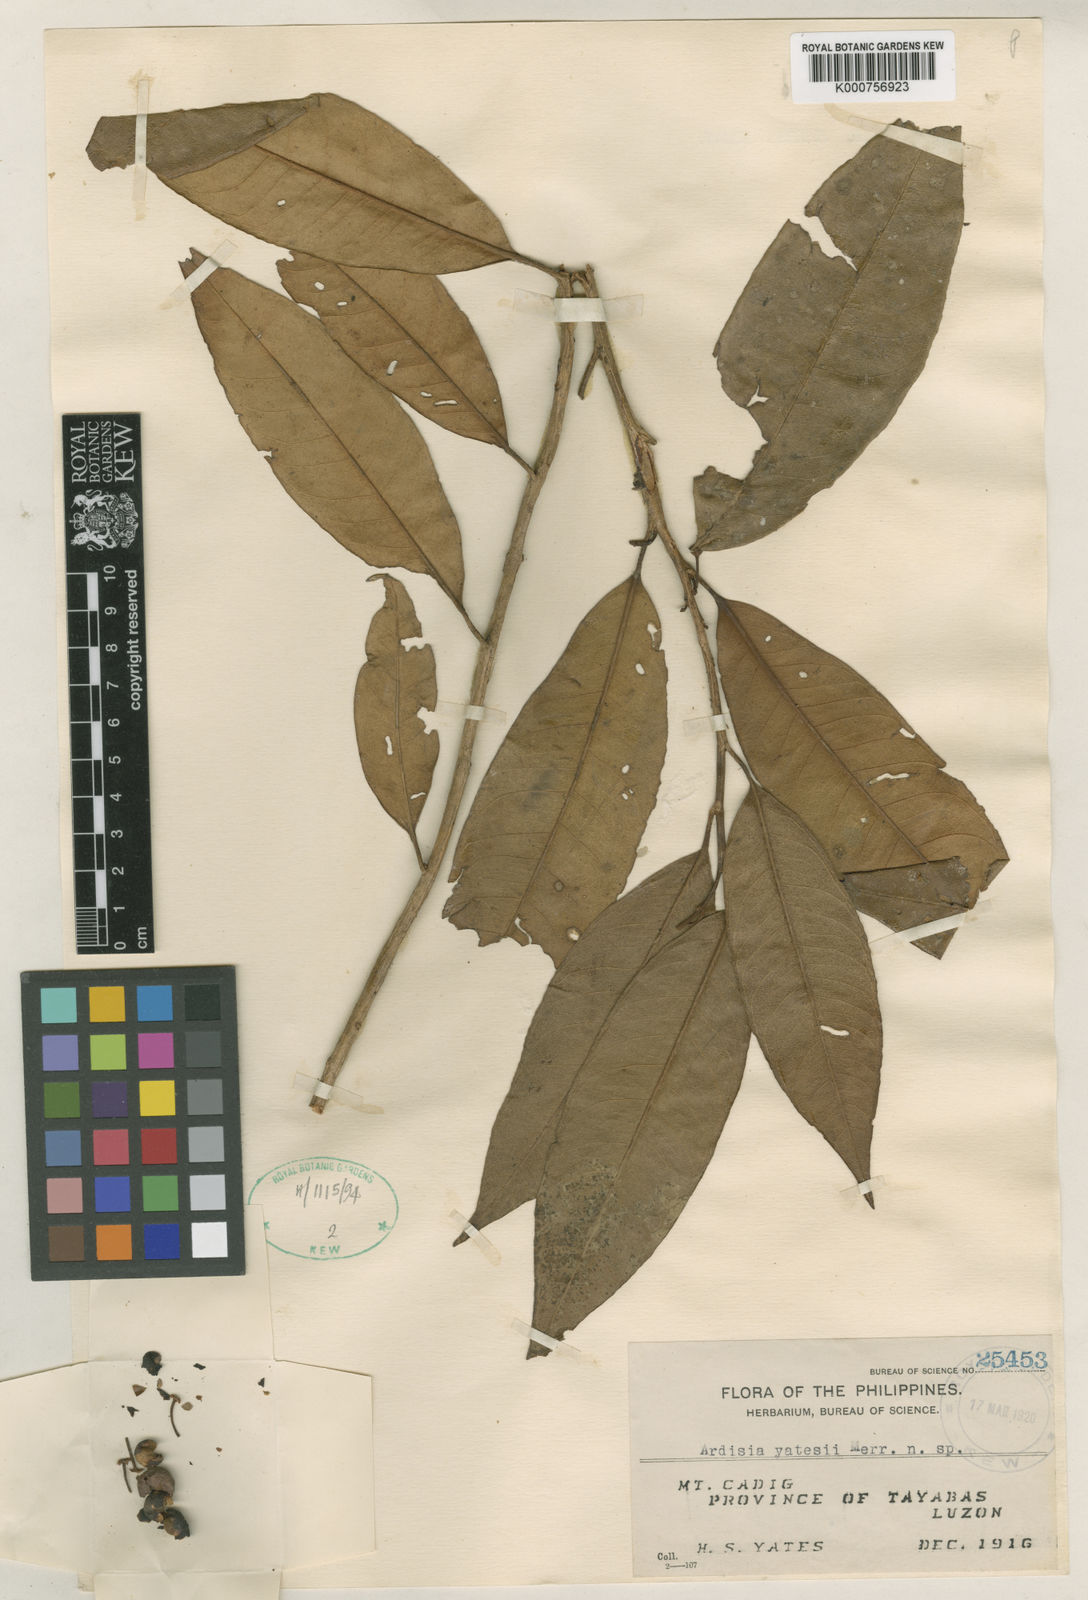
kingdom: Plantae
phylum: Tracheophyta
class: Magnoliopsida
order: Ericales
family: Primulaceae
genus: Ardisia
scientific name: Ardisia yatesii
